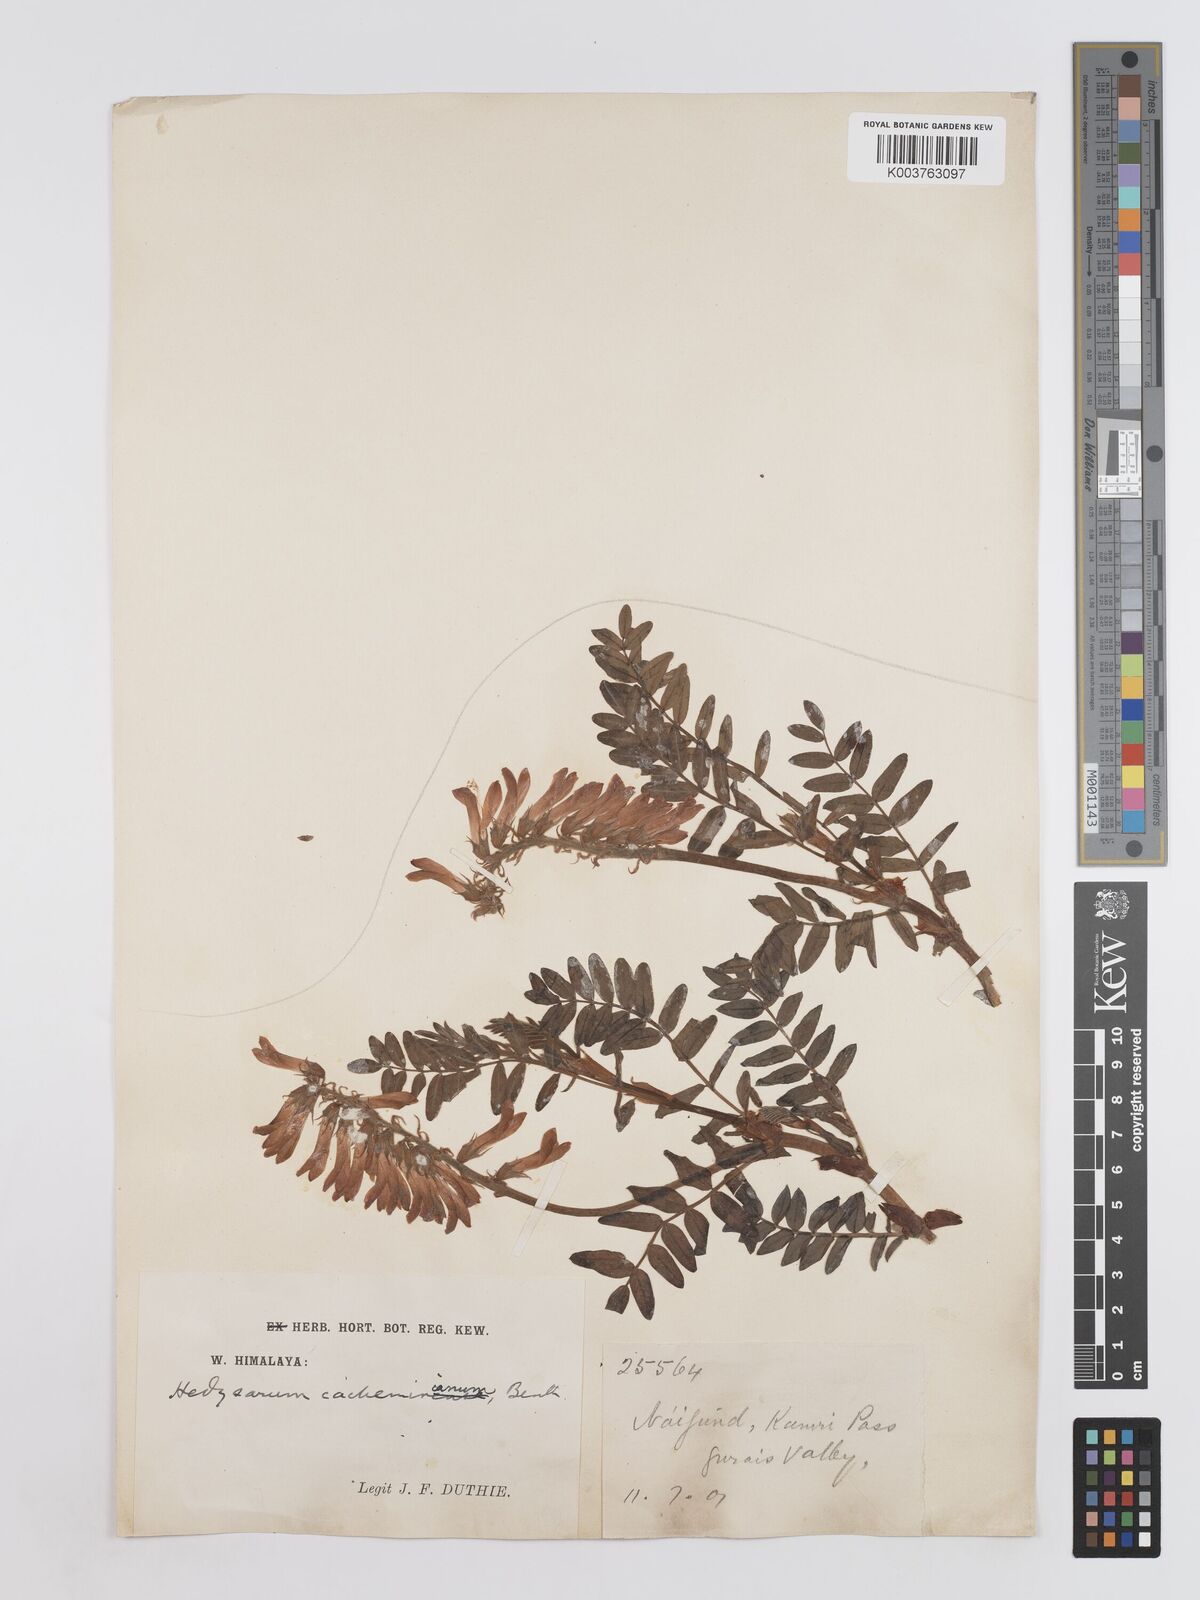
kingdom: Plantae
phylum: Tracheophyta
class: Magnoliopsida
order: Fabales
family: Fabaceae
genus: Hedysarum
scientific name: Hedysarum cachemirianum
